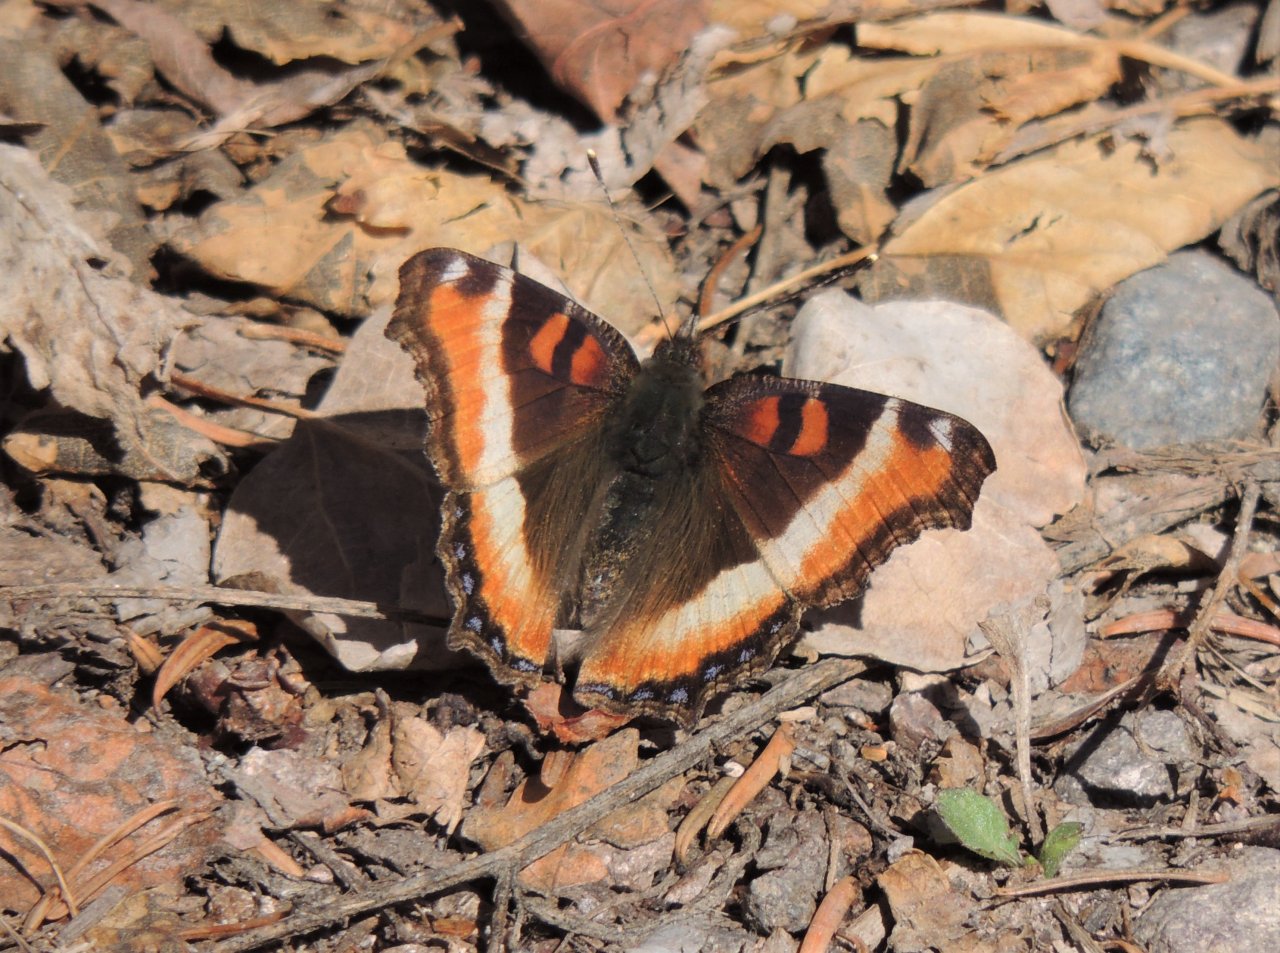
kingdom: Animalia
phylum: Arthropoda
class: Insecta
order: Lepidoptera
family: Nymphalidae
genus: Aglais
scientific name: Aglais milberti
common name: Milbert's Tortoiseshell
